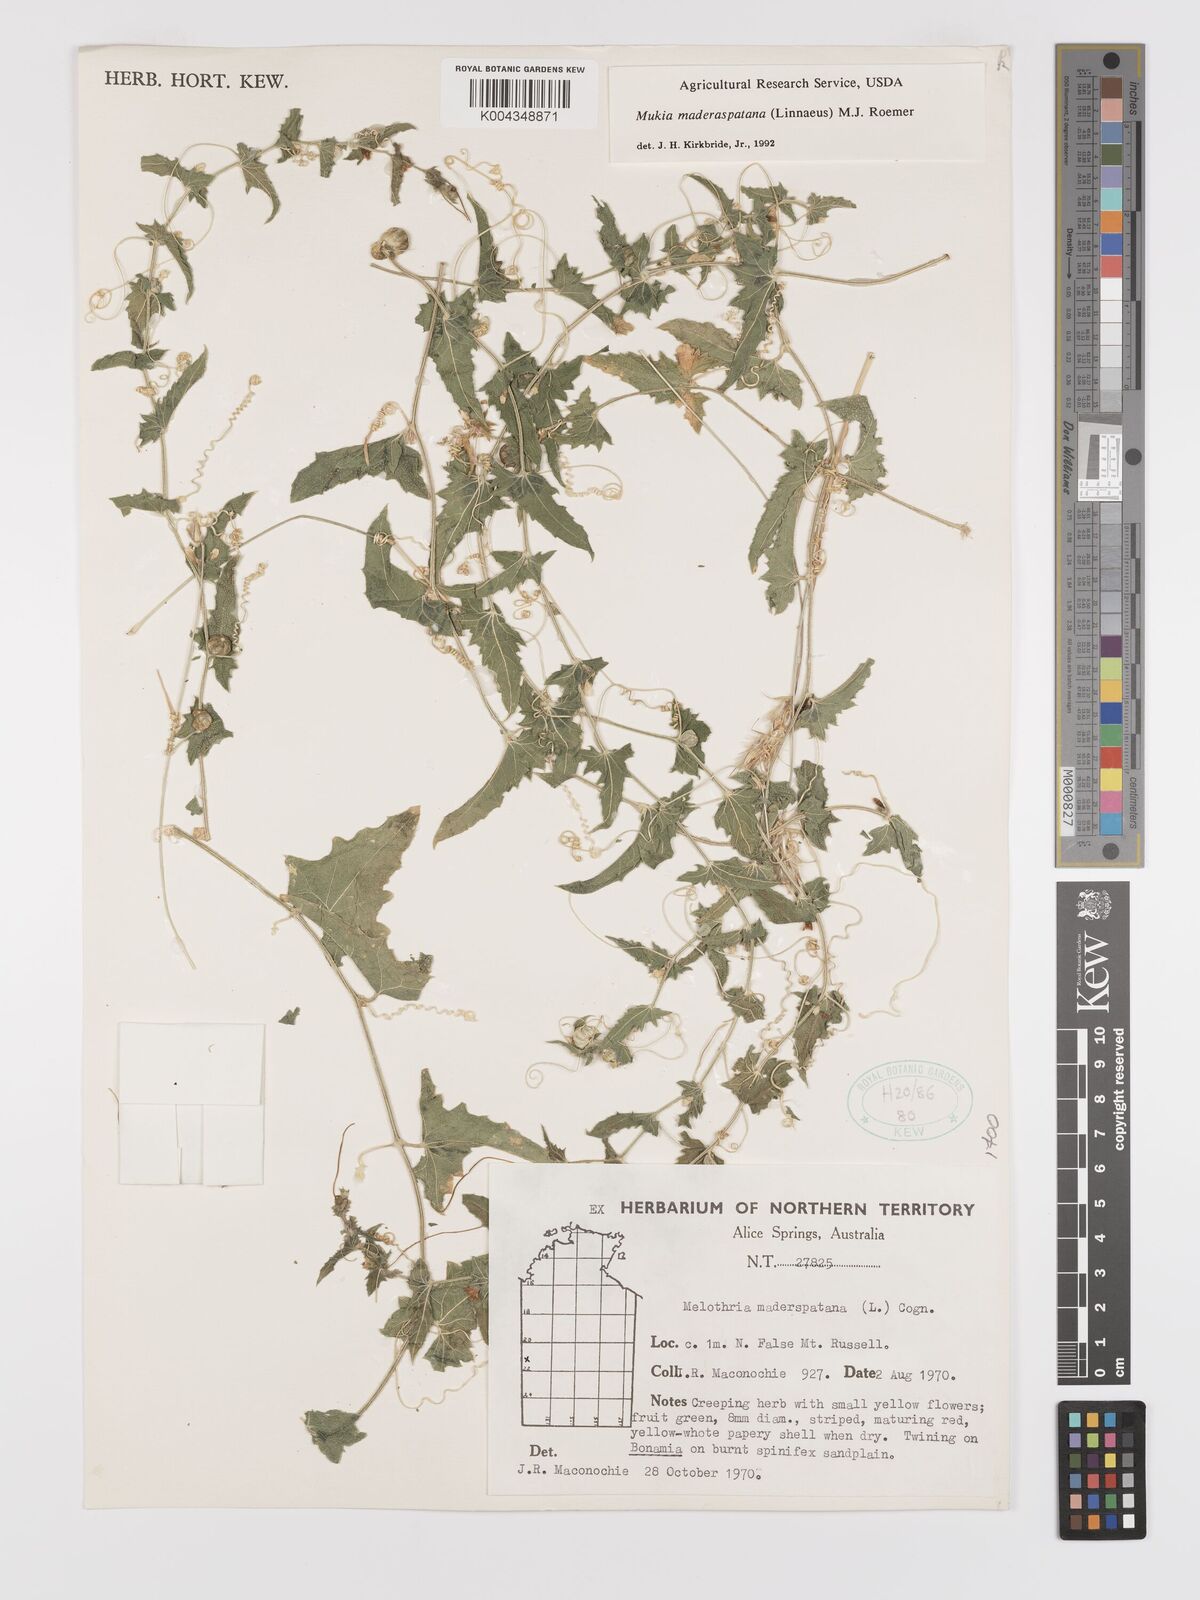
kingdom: Plantae
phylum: Tracheophyta
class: Magnoliopsida
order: Cucurbitales
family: Cucurbitaceae
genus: Cucumis
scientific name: Cucumis maderaspatanus
